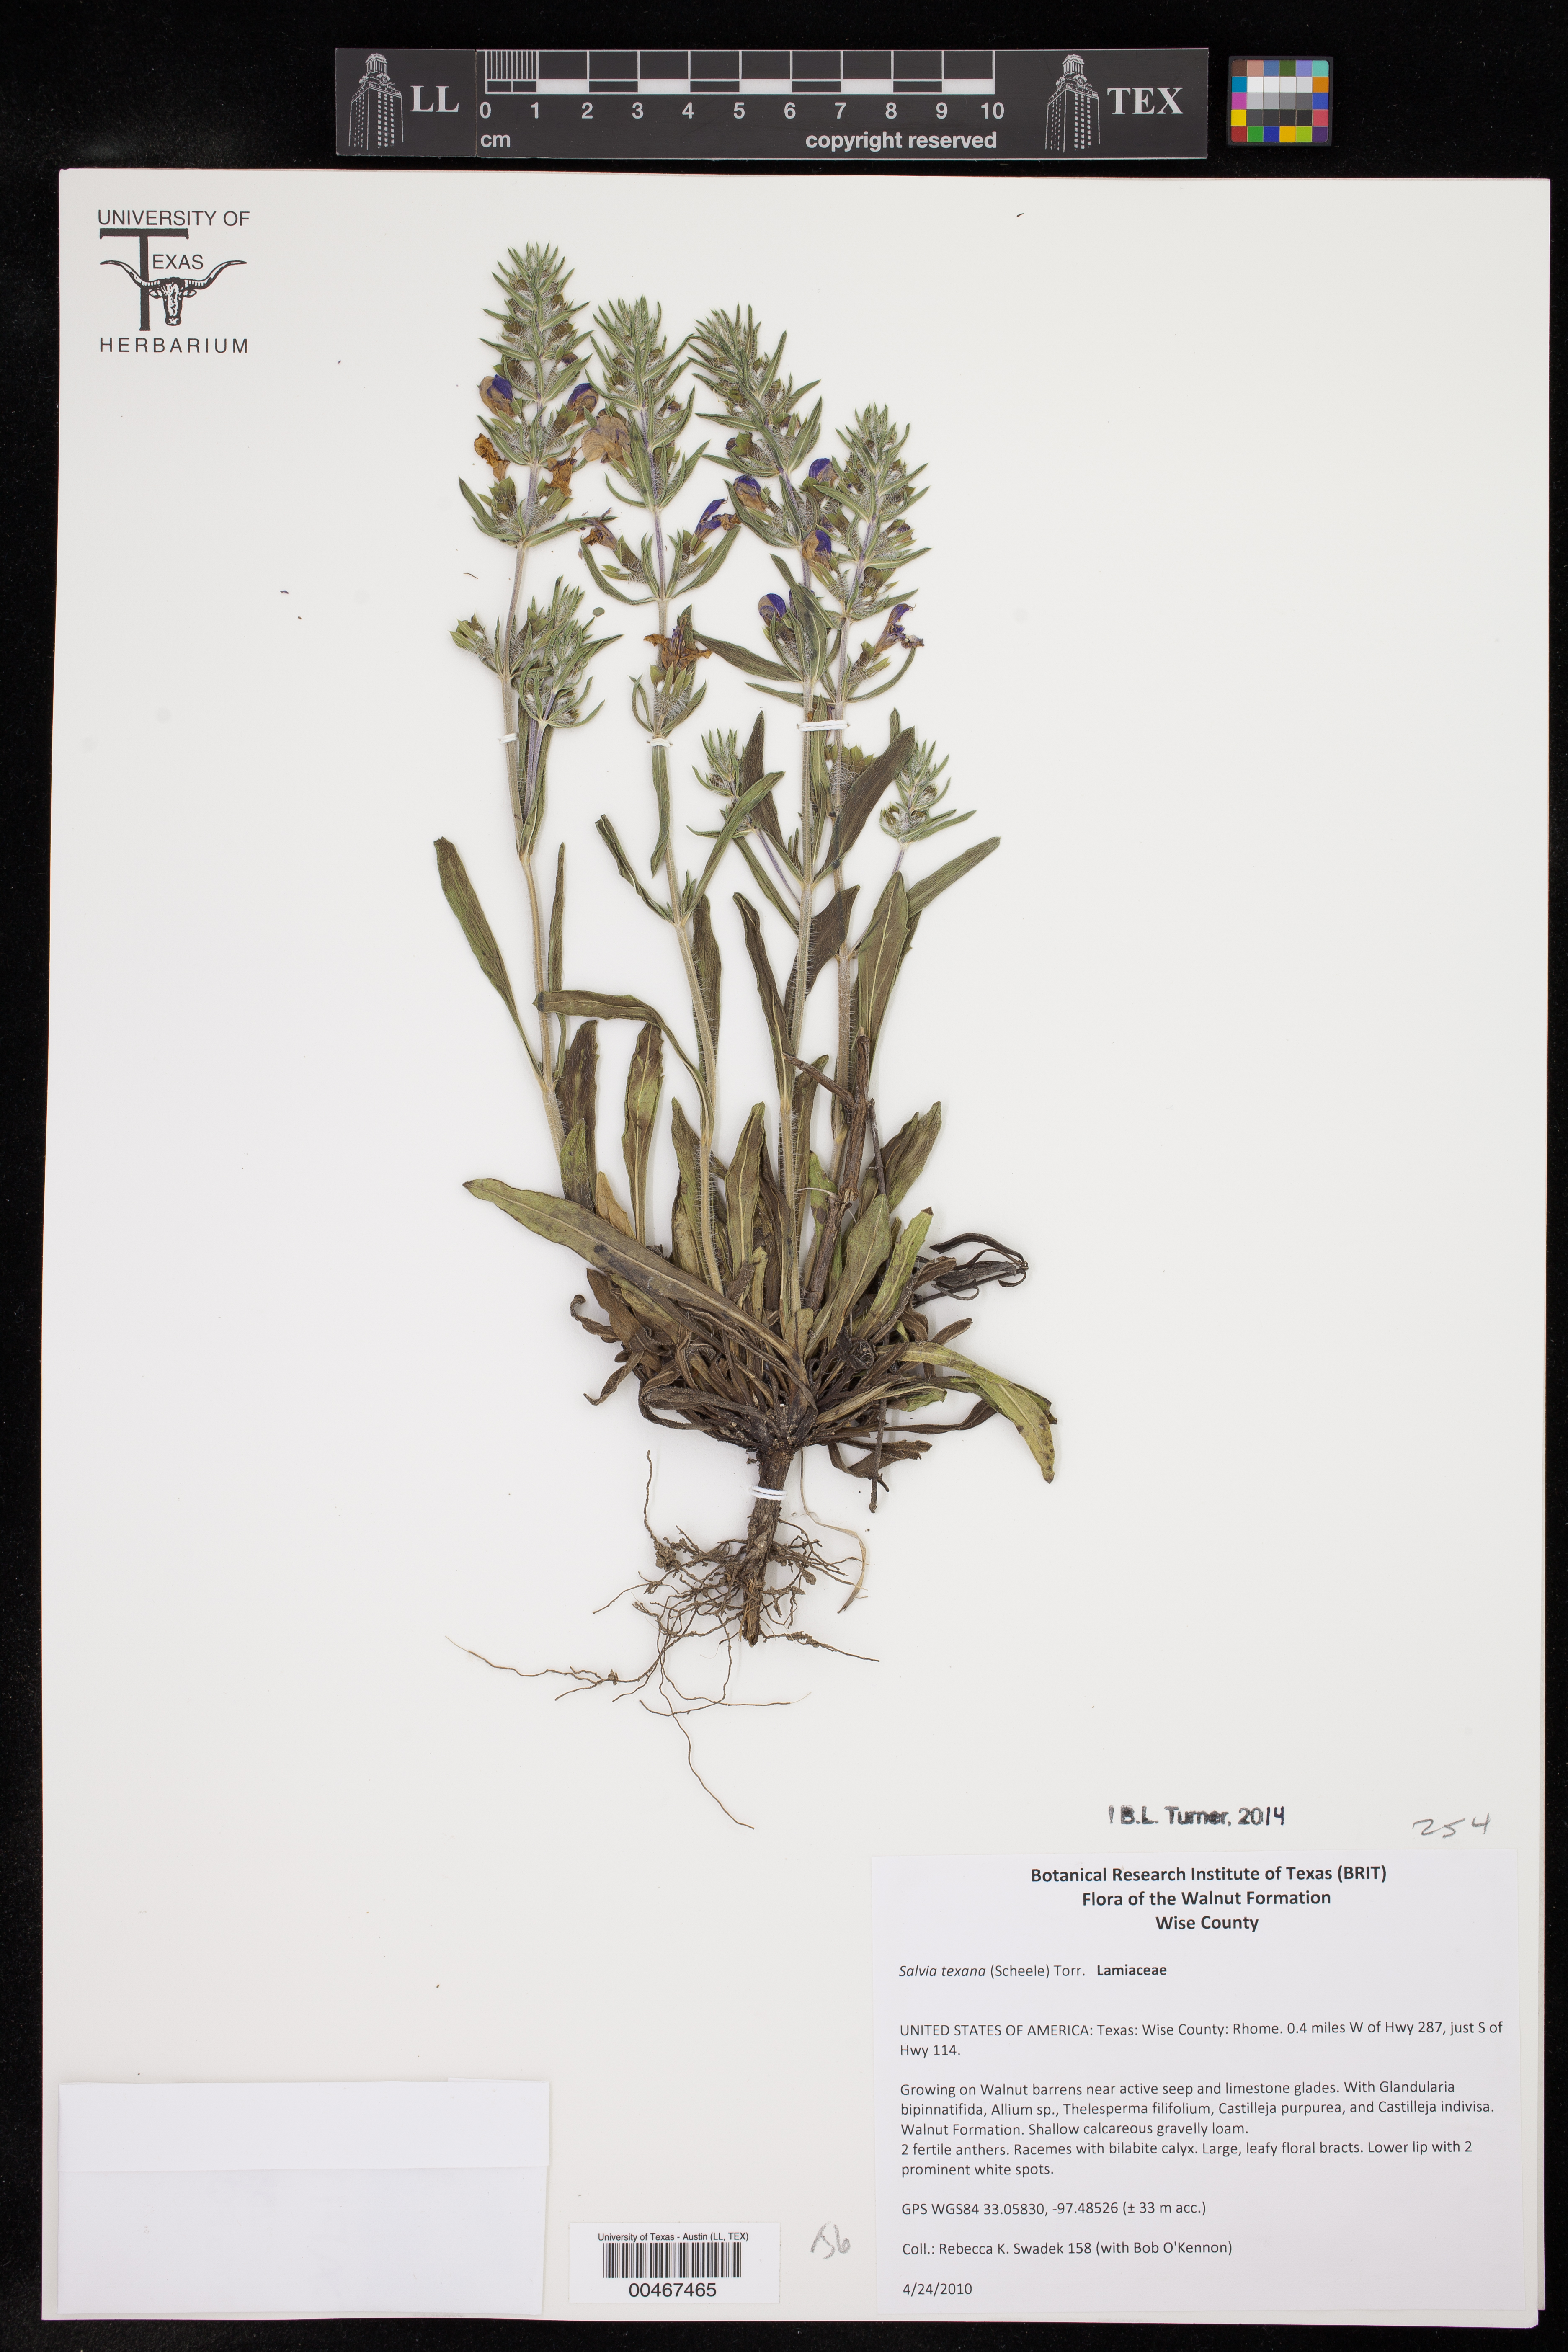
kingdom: Plantae
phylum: Tracheophyta
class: Magnoliopsida
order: Lamiales
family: Lamiaceae
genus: Salvia
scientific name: Salvia texana
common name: Texas sage
